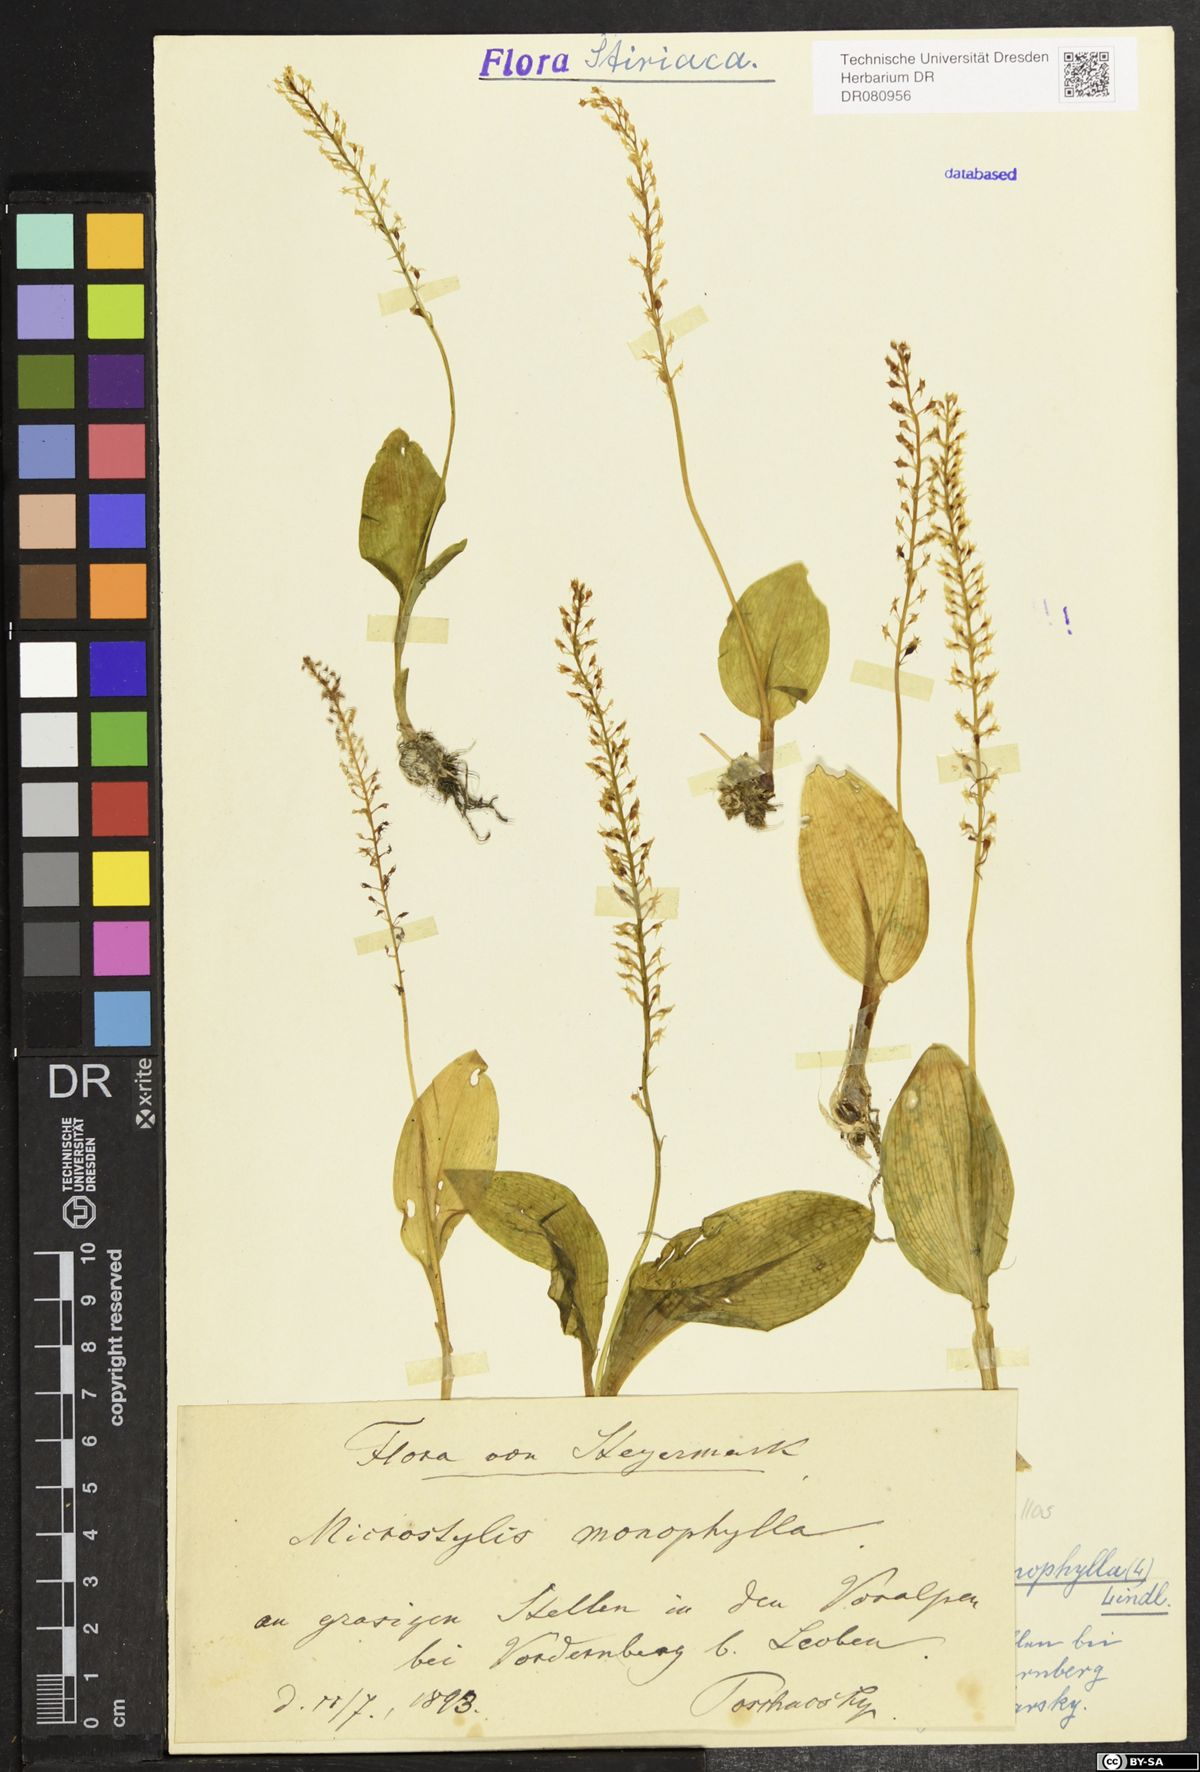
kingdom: Plantae
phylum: Tracheophyta
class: Liliopsida
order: Asparagales
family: Orchidaceae
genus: Malaxis
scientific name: Malaxis monophyllos
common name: White adder's-mouth
